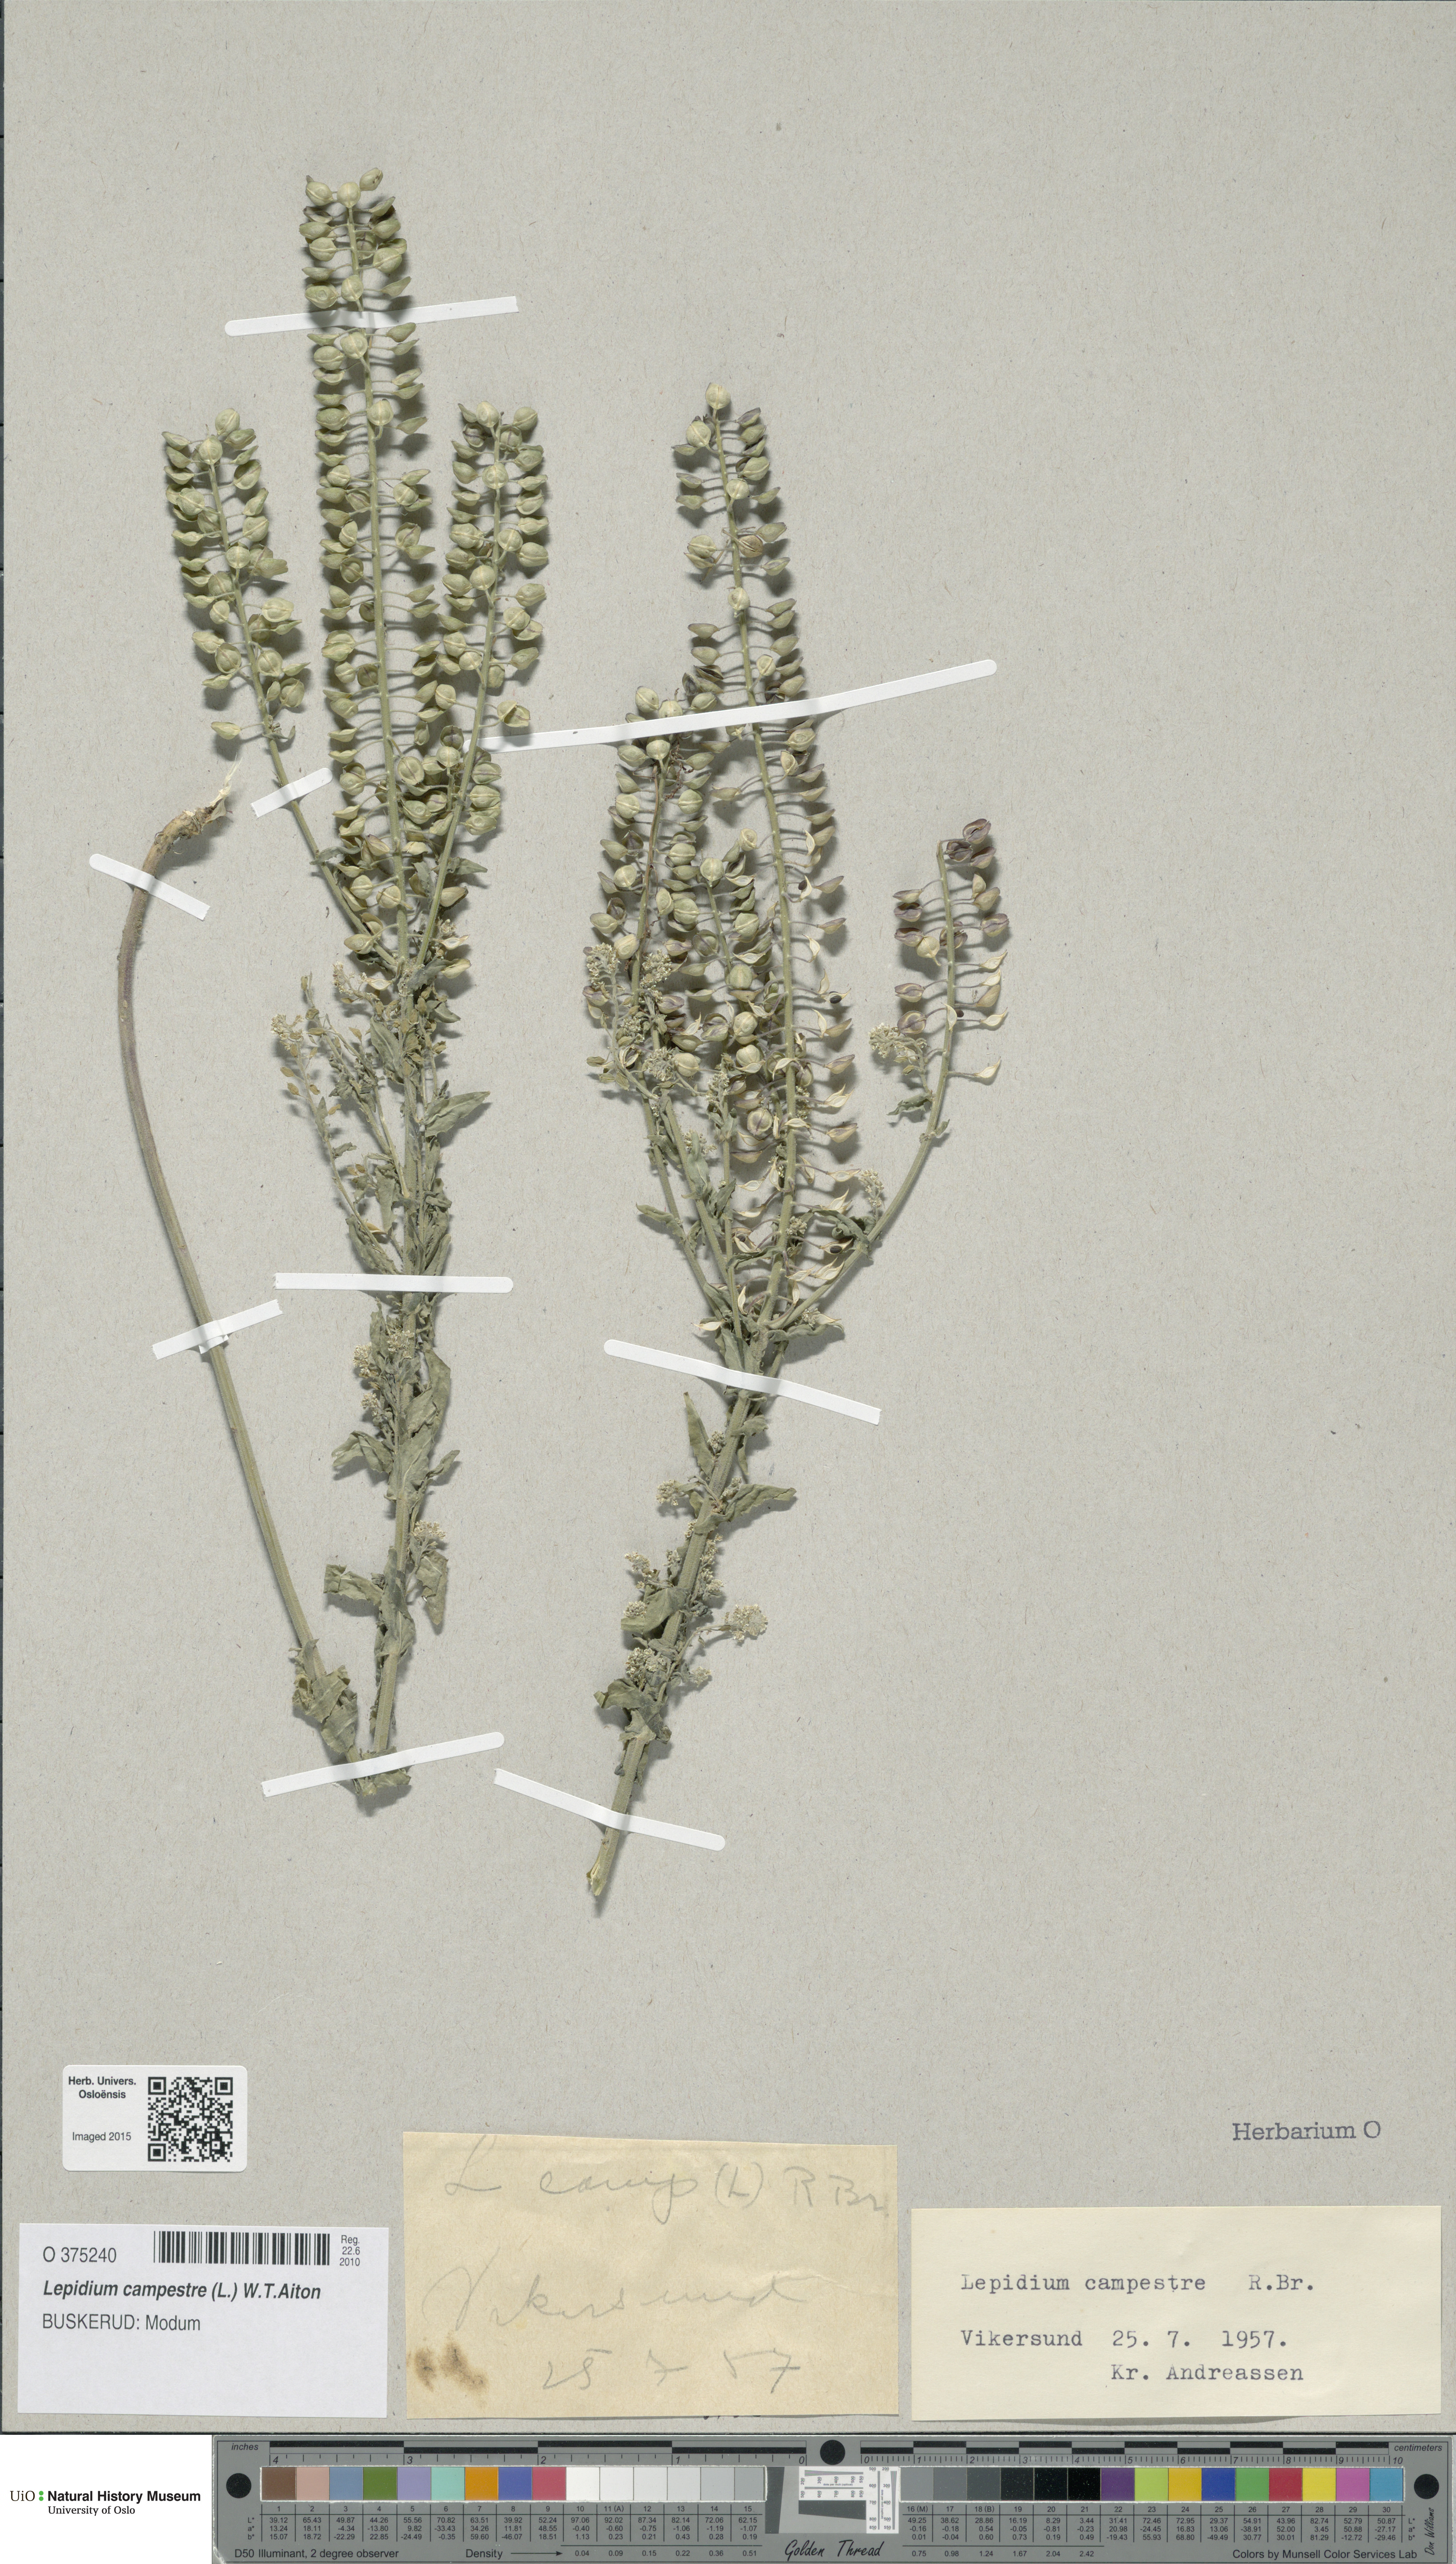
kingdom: Plantae
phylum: Tracheophyta
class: Magnoliopsida
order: Brassicales
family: Brassicaceae
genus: Lepidium
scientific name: Lepidium campestre
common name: Field pepperwort
